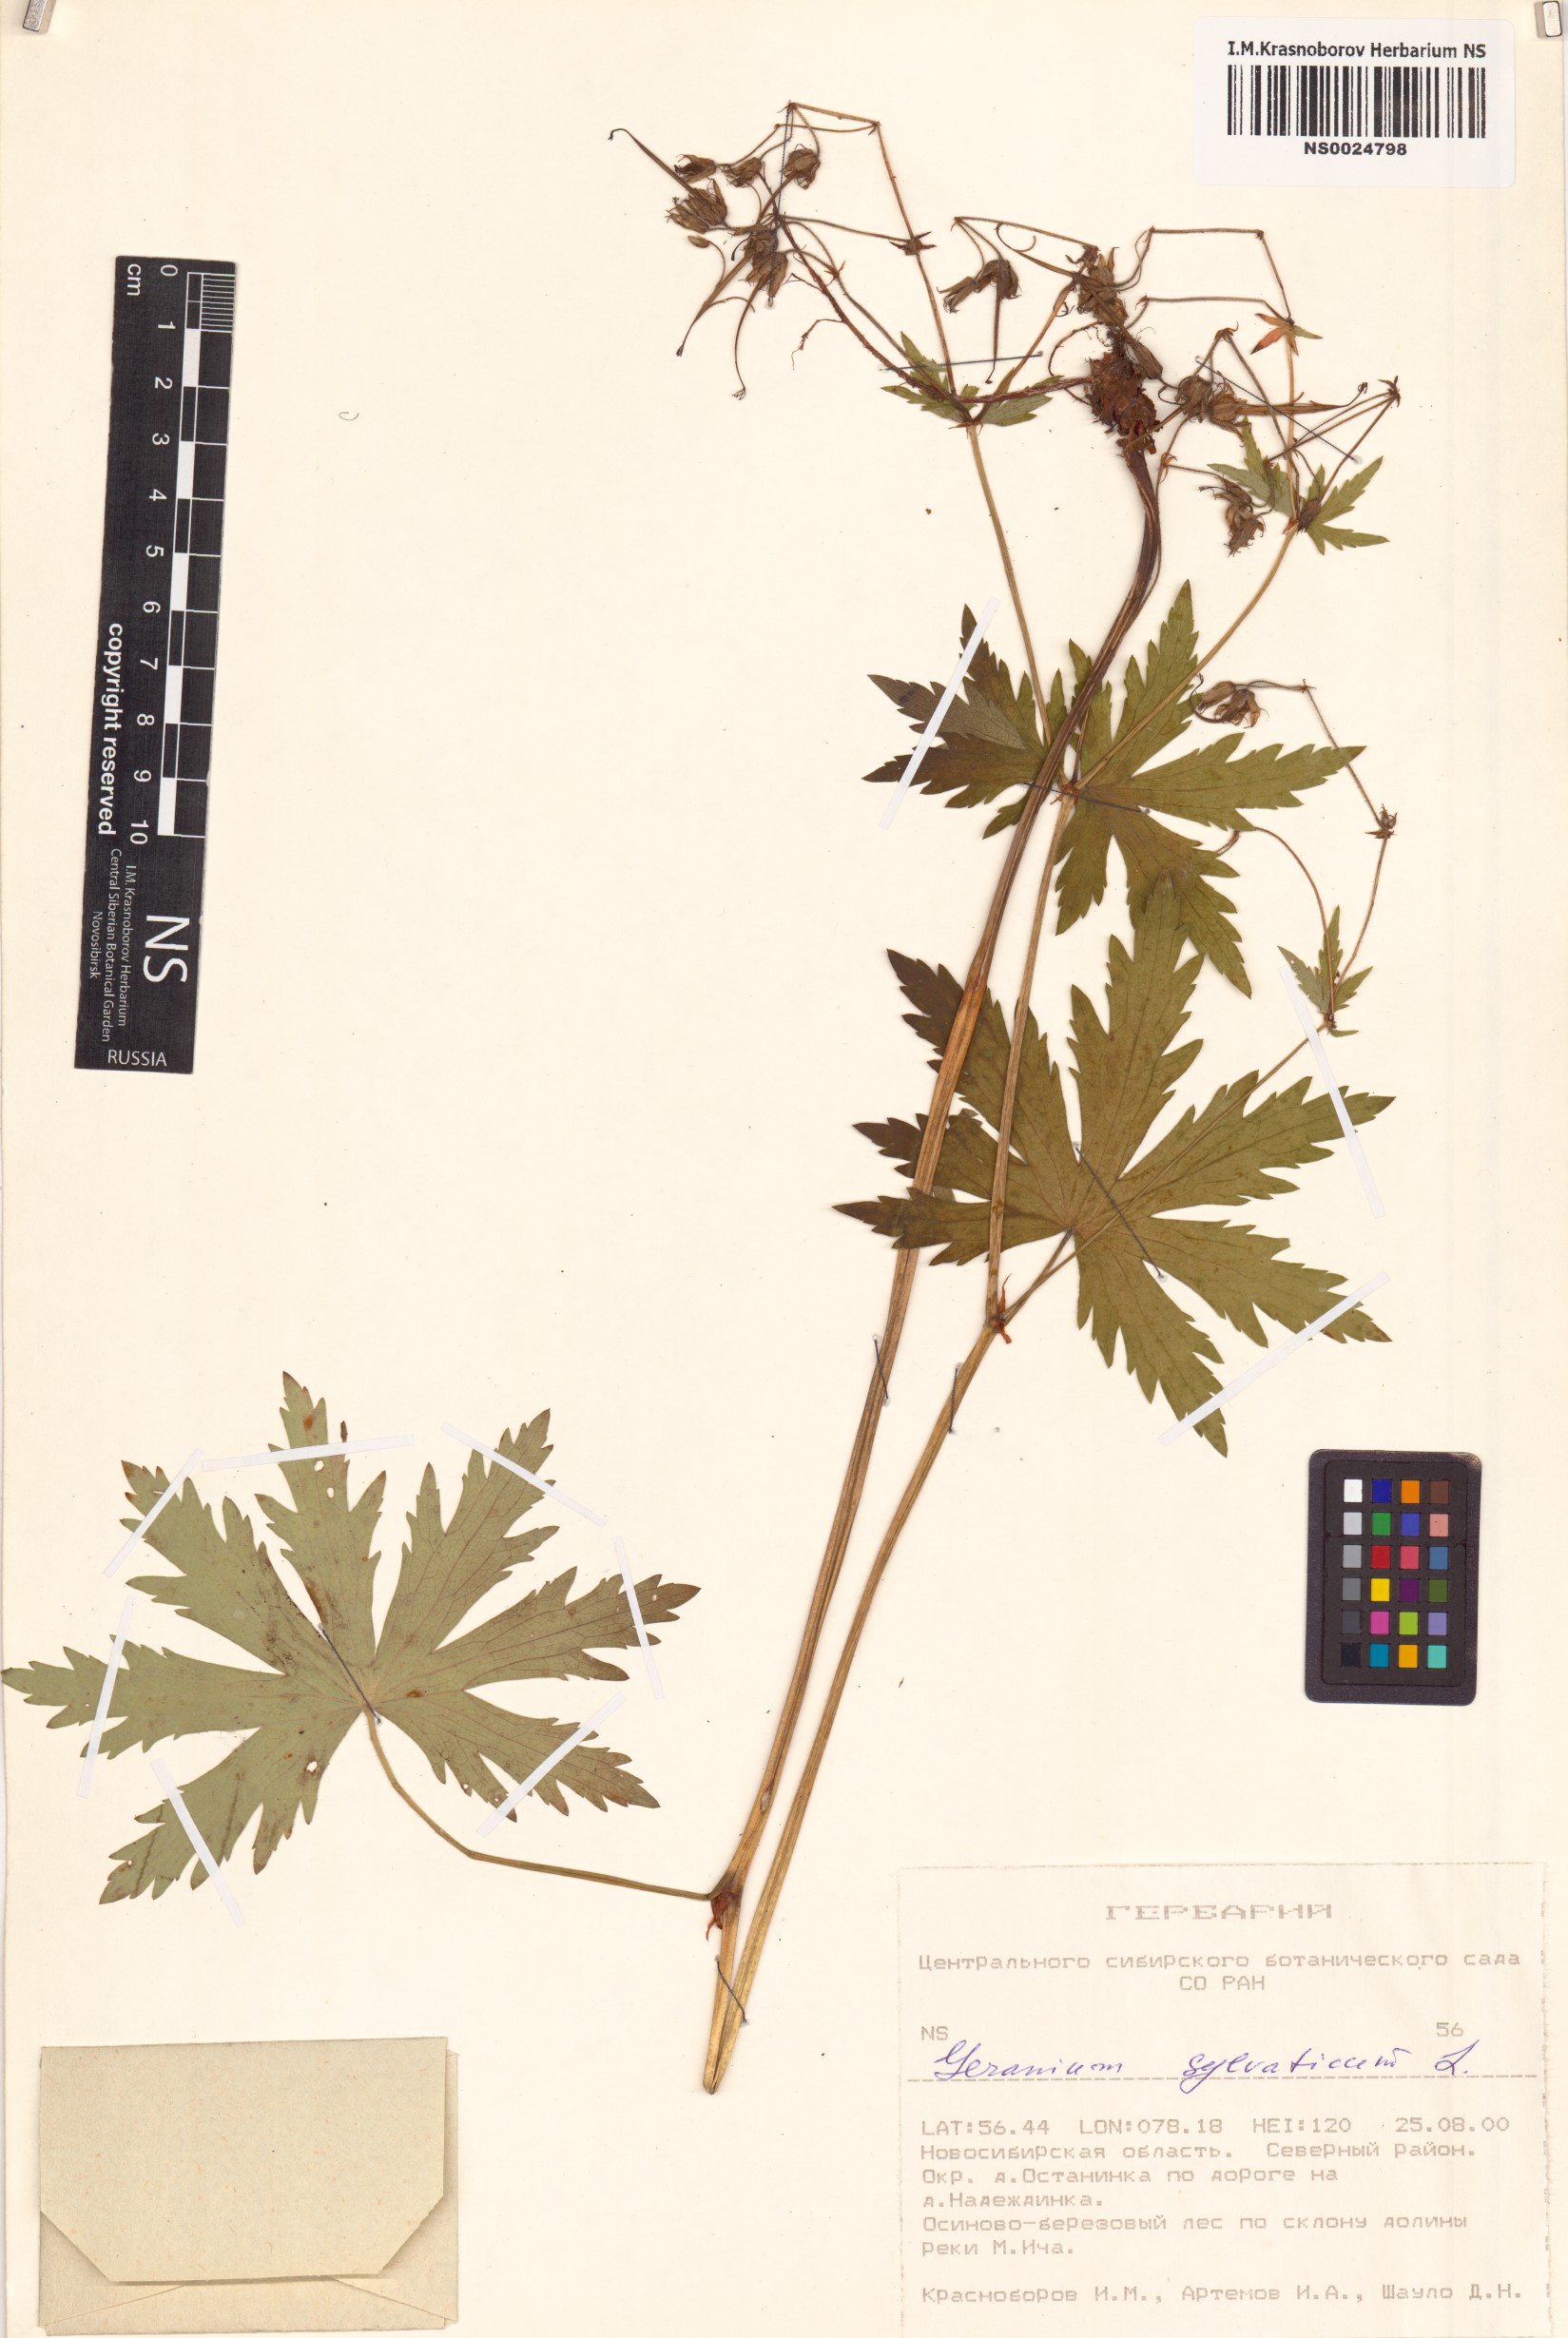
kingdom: Plantae
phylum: Tracheophyta
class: Magnoliopsida
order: Geraniales
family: Geraniaceae
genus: Geranium
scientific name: Geranium sylvaticum
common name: Wood crane's-bill
